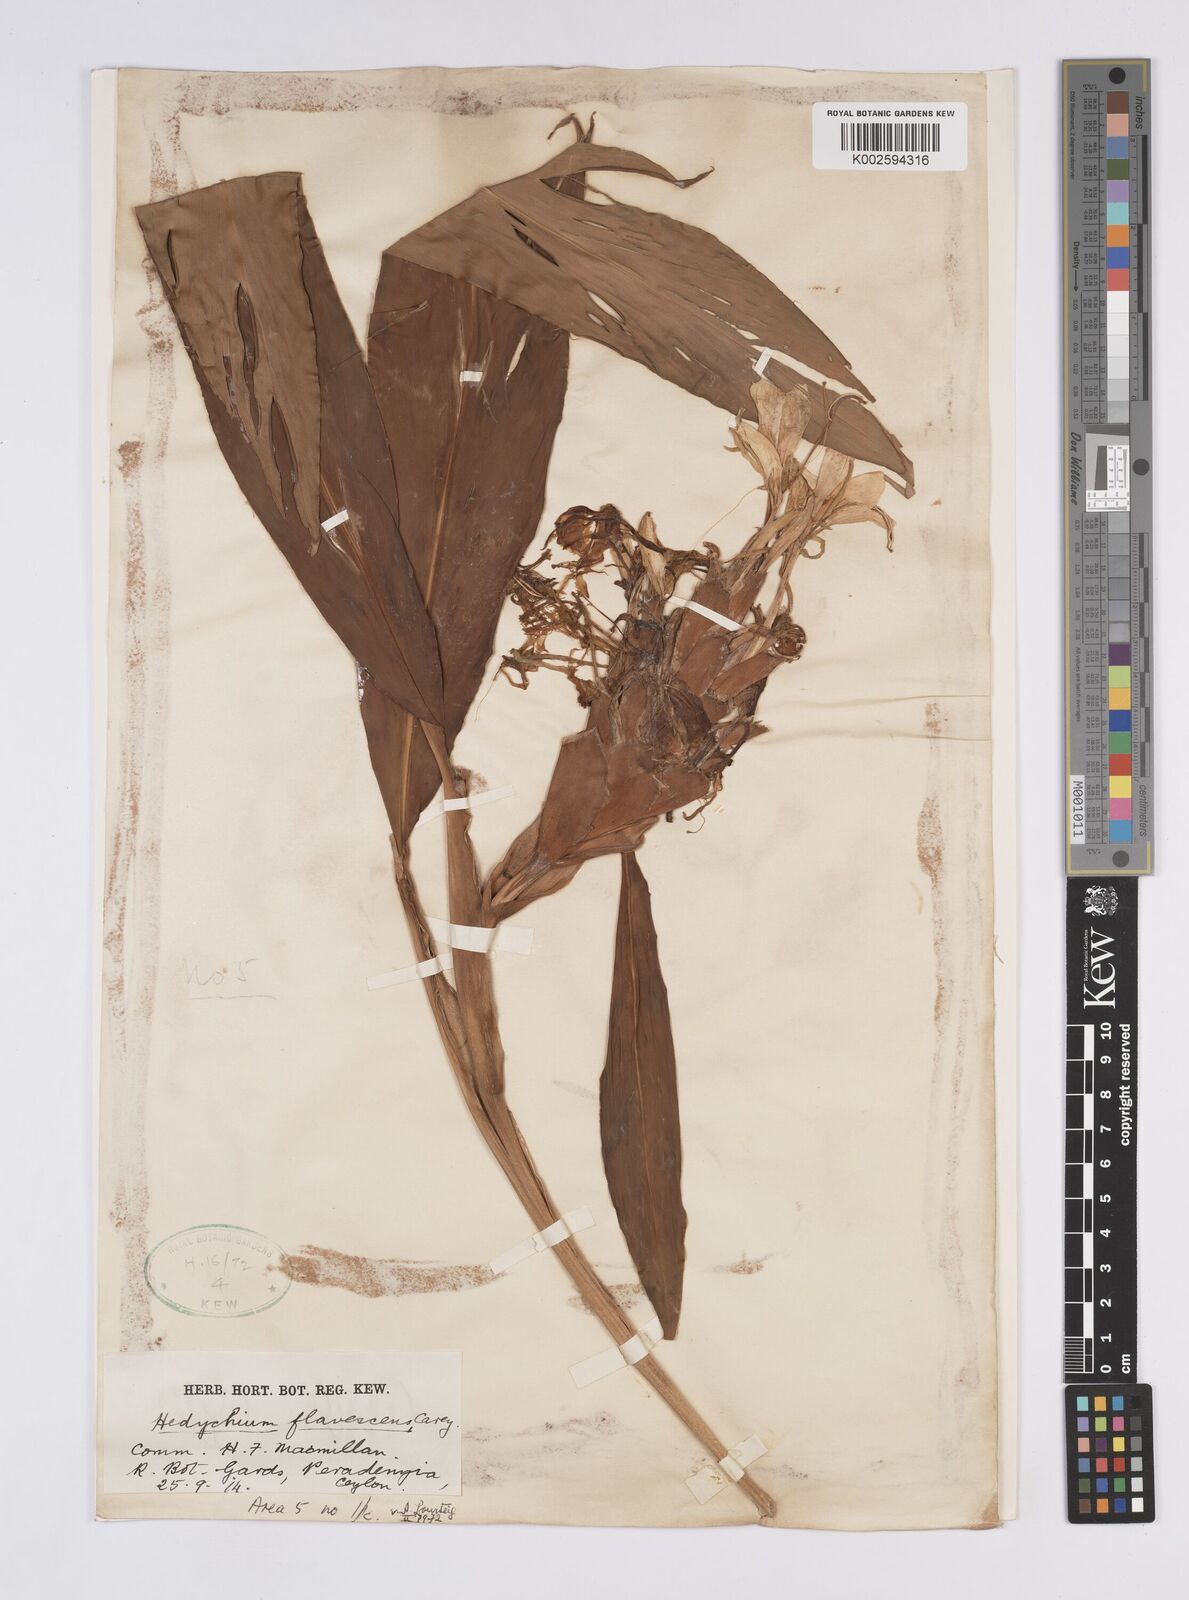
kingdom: Plantae
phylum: Tracheophyta
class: Liliopsida
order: Zingiberales
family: Zingiberaceae
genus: Hedychium
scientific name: Hedychium flavescens
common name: Yellow ginger
